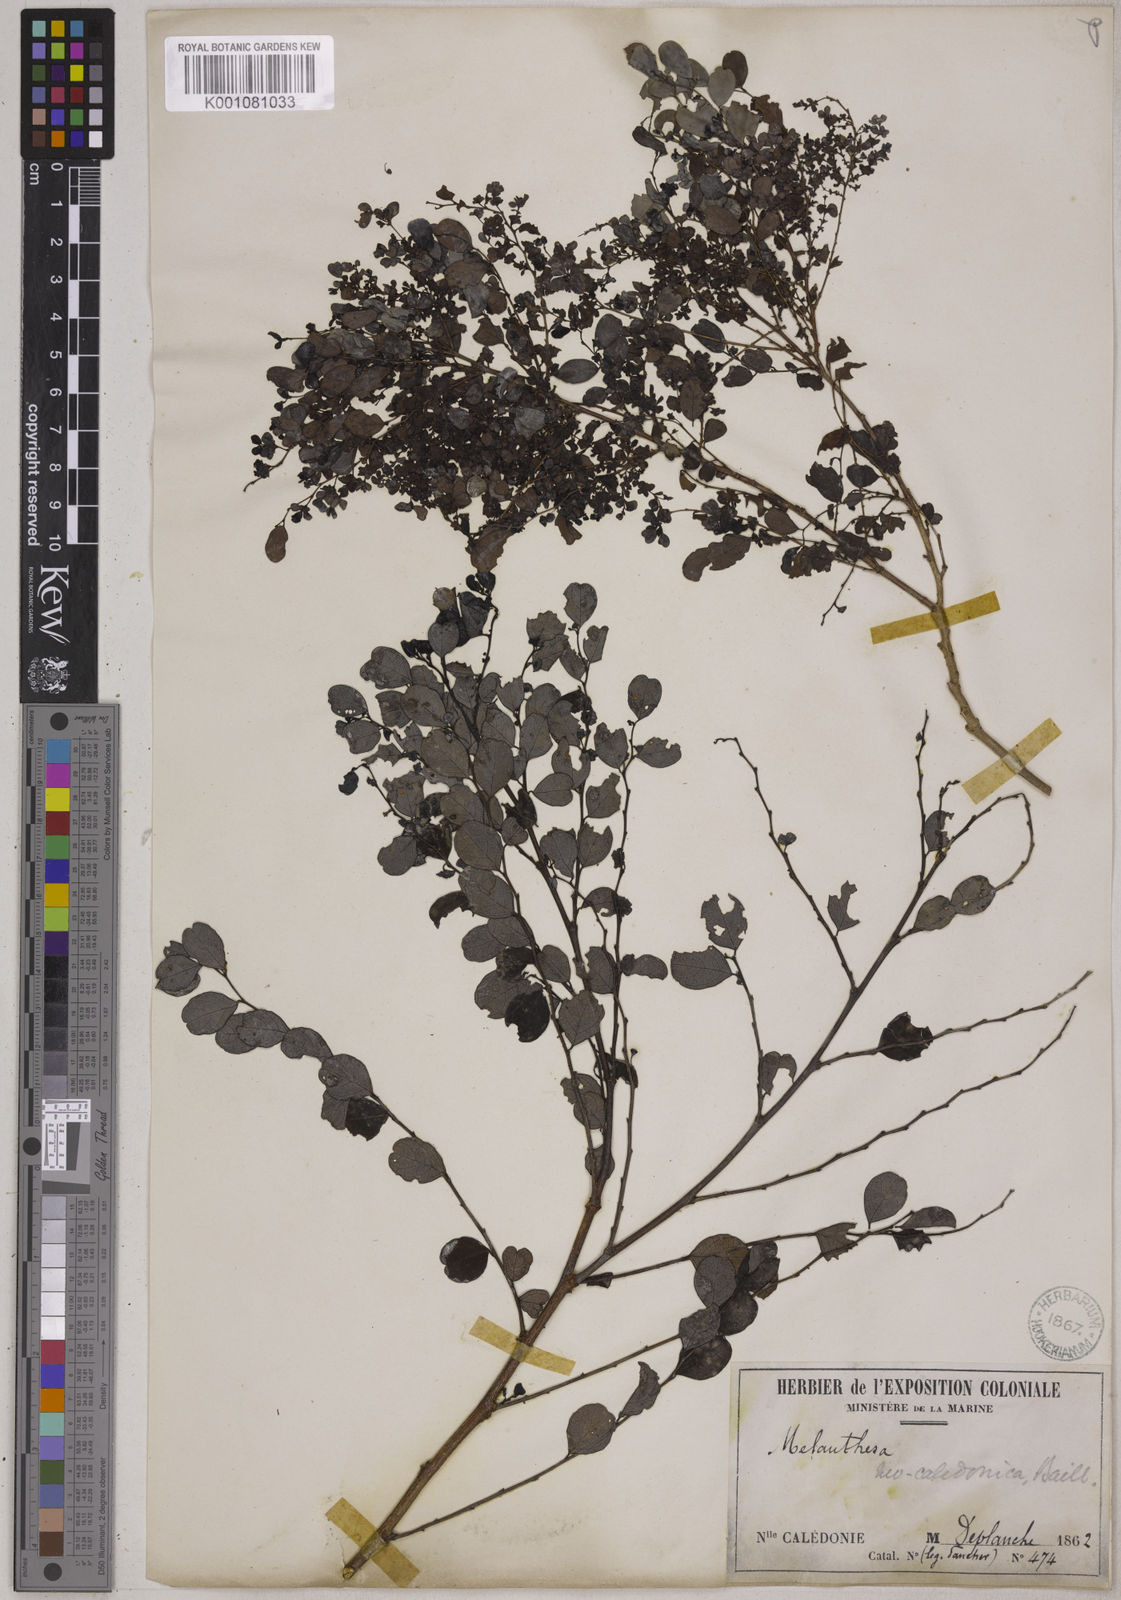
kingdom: Plantae
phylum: Tracheophyta
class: Magnoliopsida
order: Malpighiales
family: Phyllanthaceae
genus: Breynia
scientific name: Breynia disticha
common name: Snowbush
